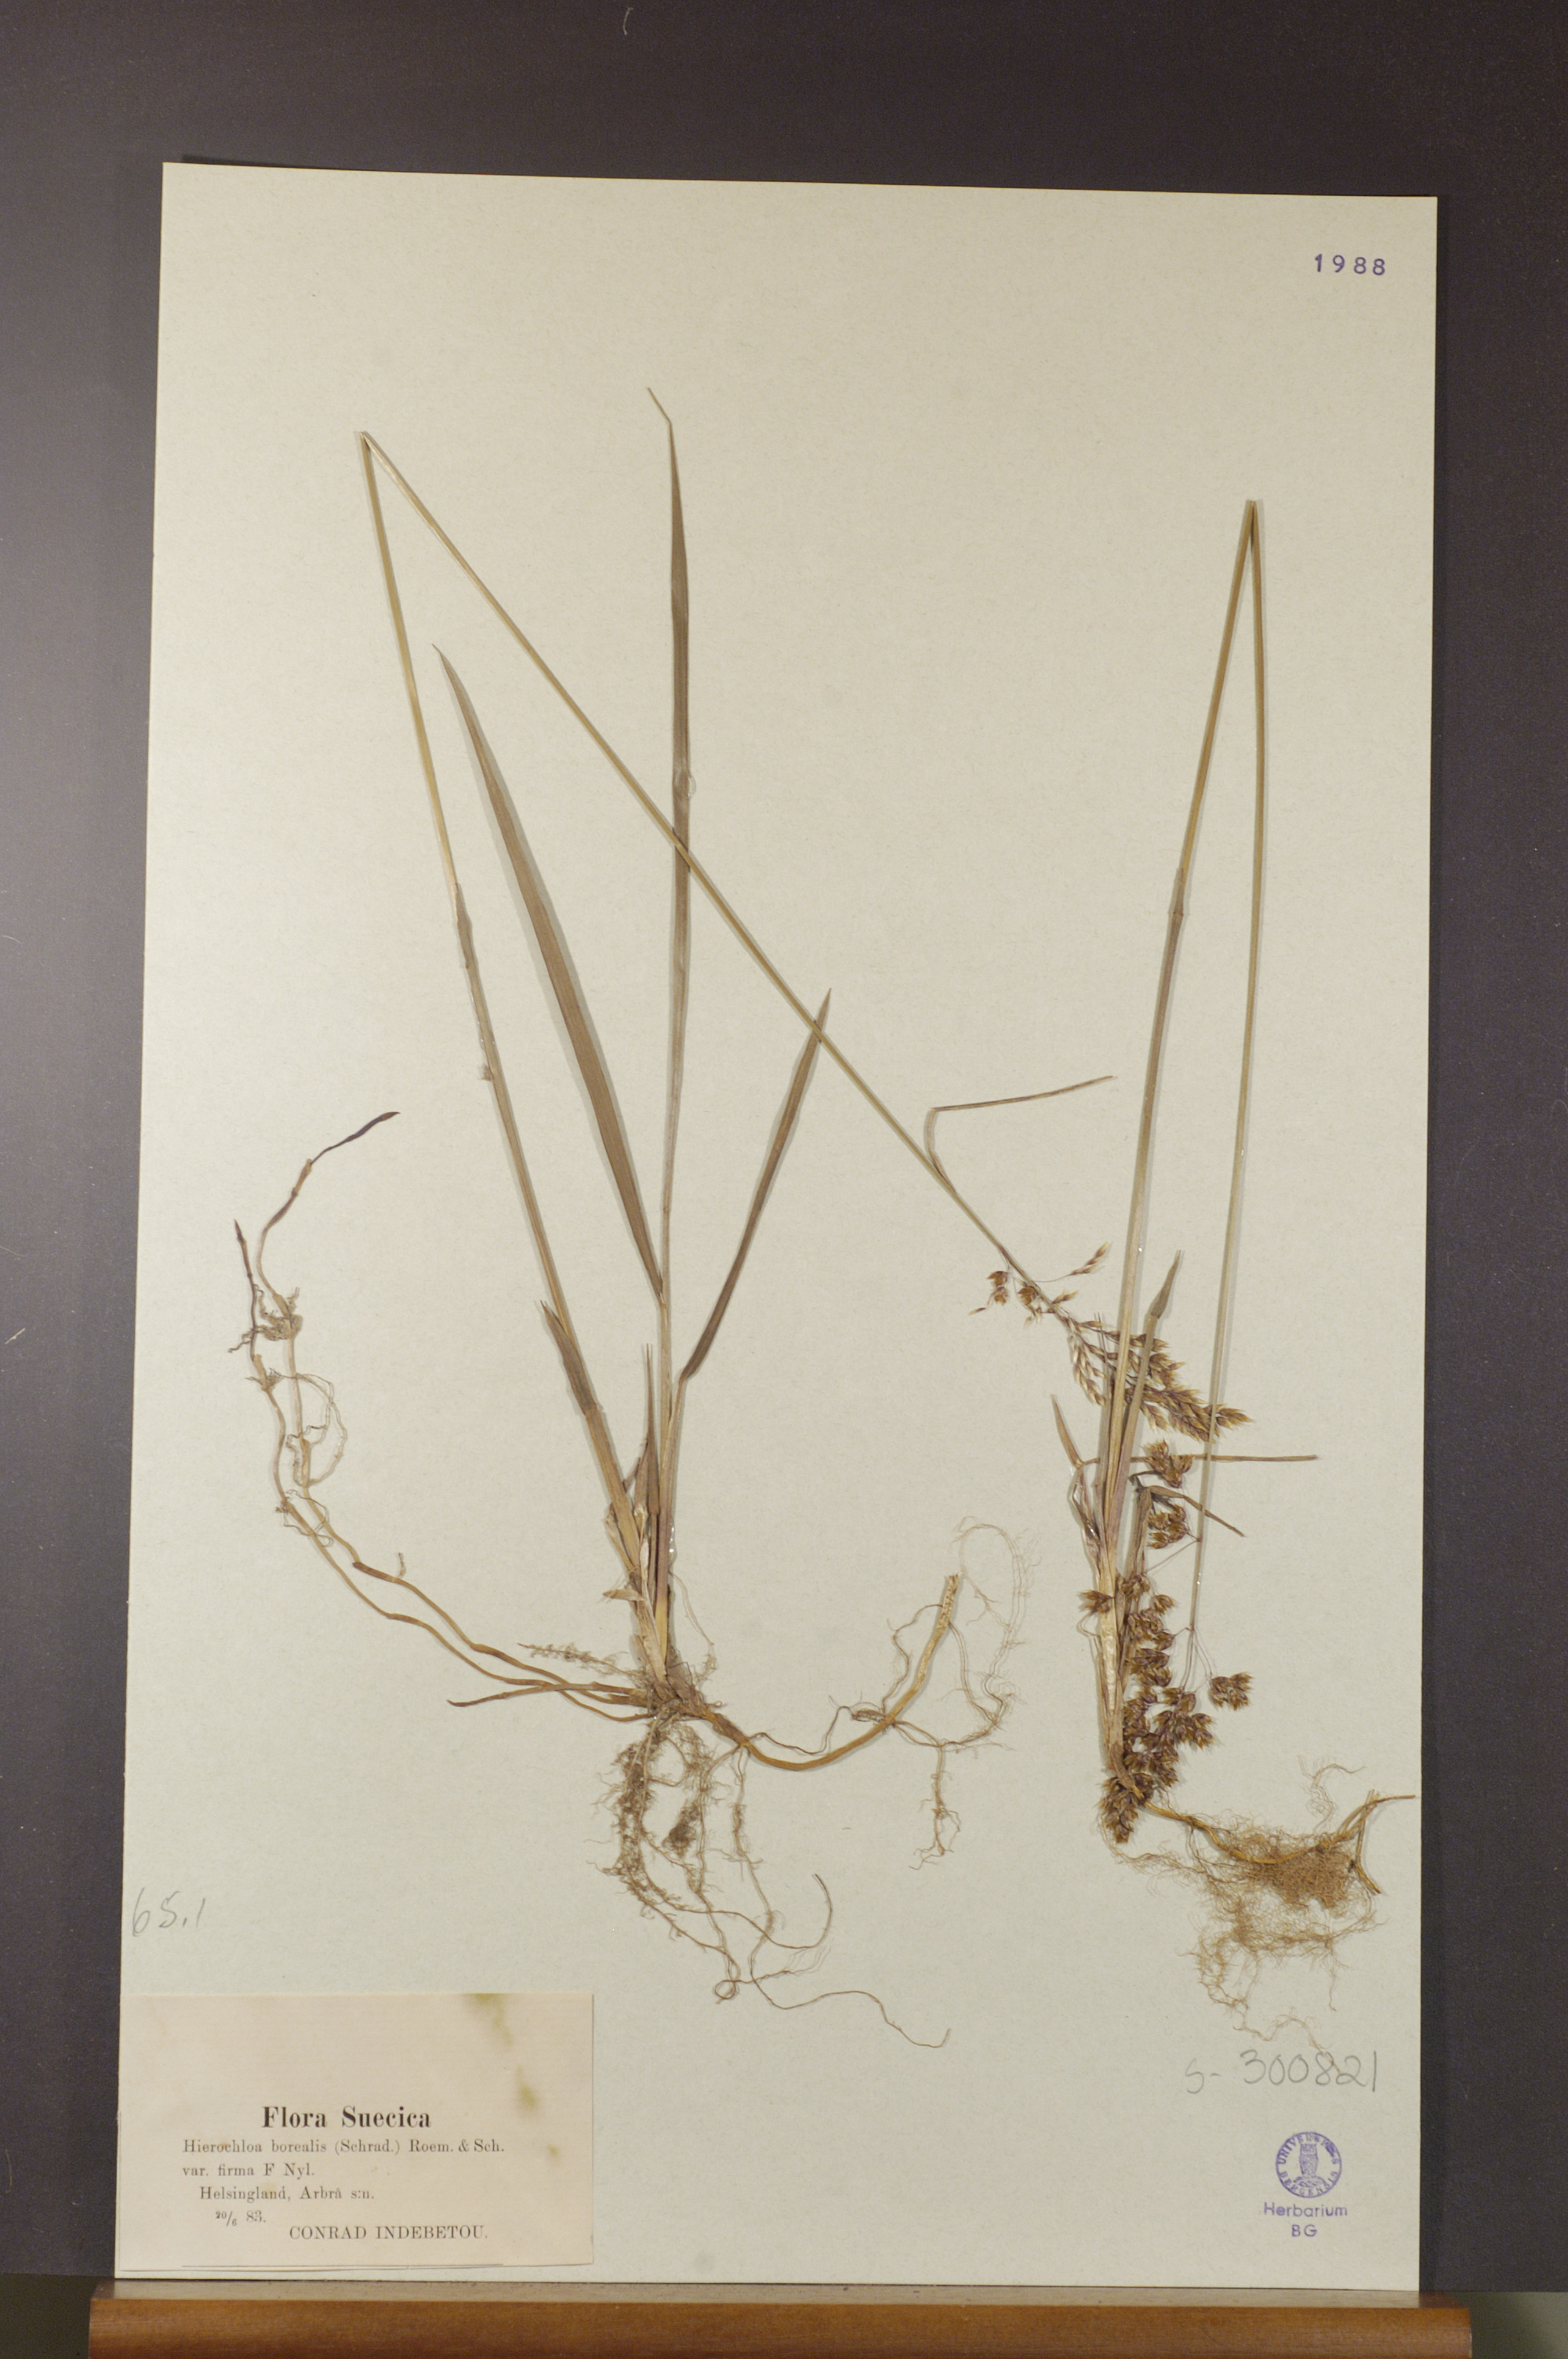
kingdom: Plantae
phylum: Tracheophyta
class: Liliopsida
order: Poales
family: Poaceae
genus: Anthoxanthum
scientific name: Anthoxanthum nitens
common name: Holy grass
